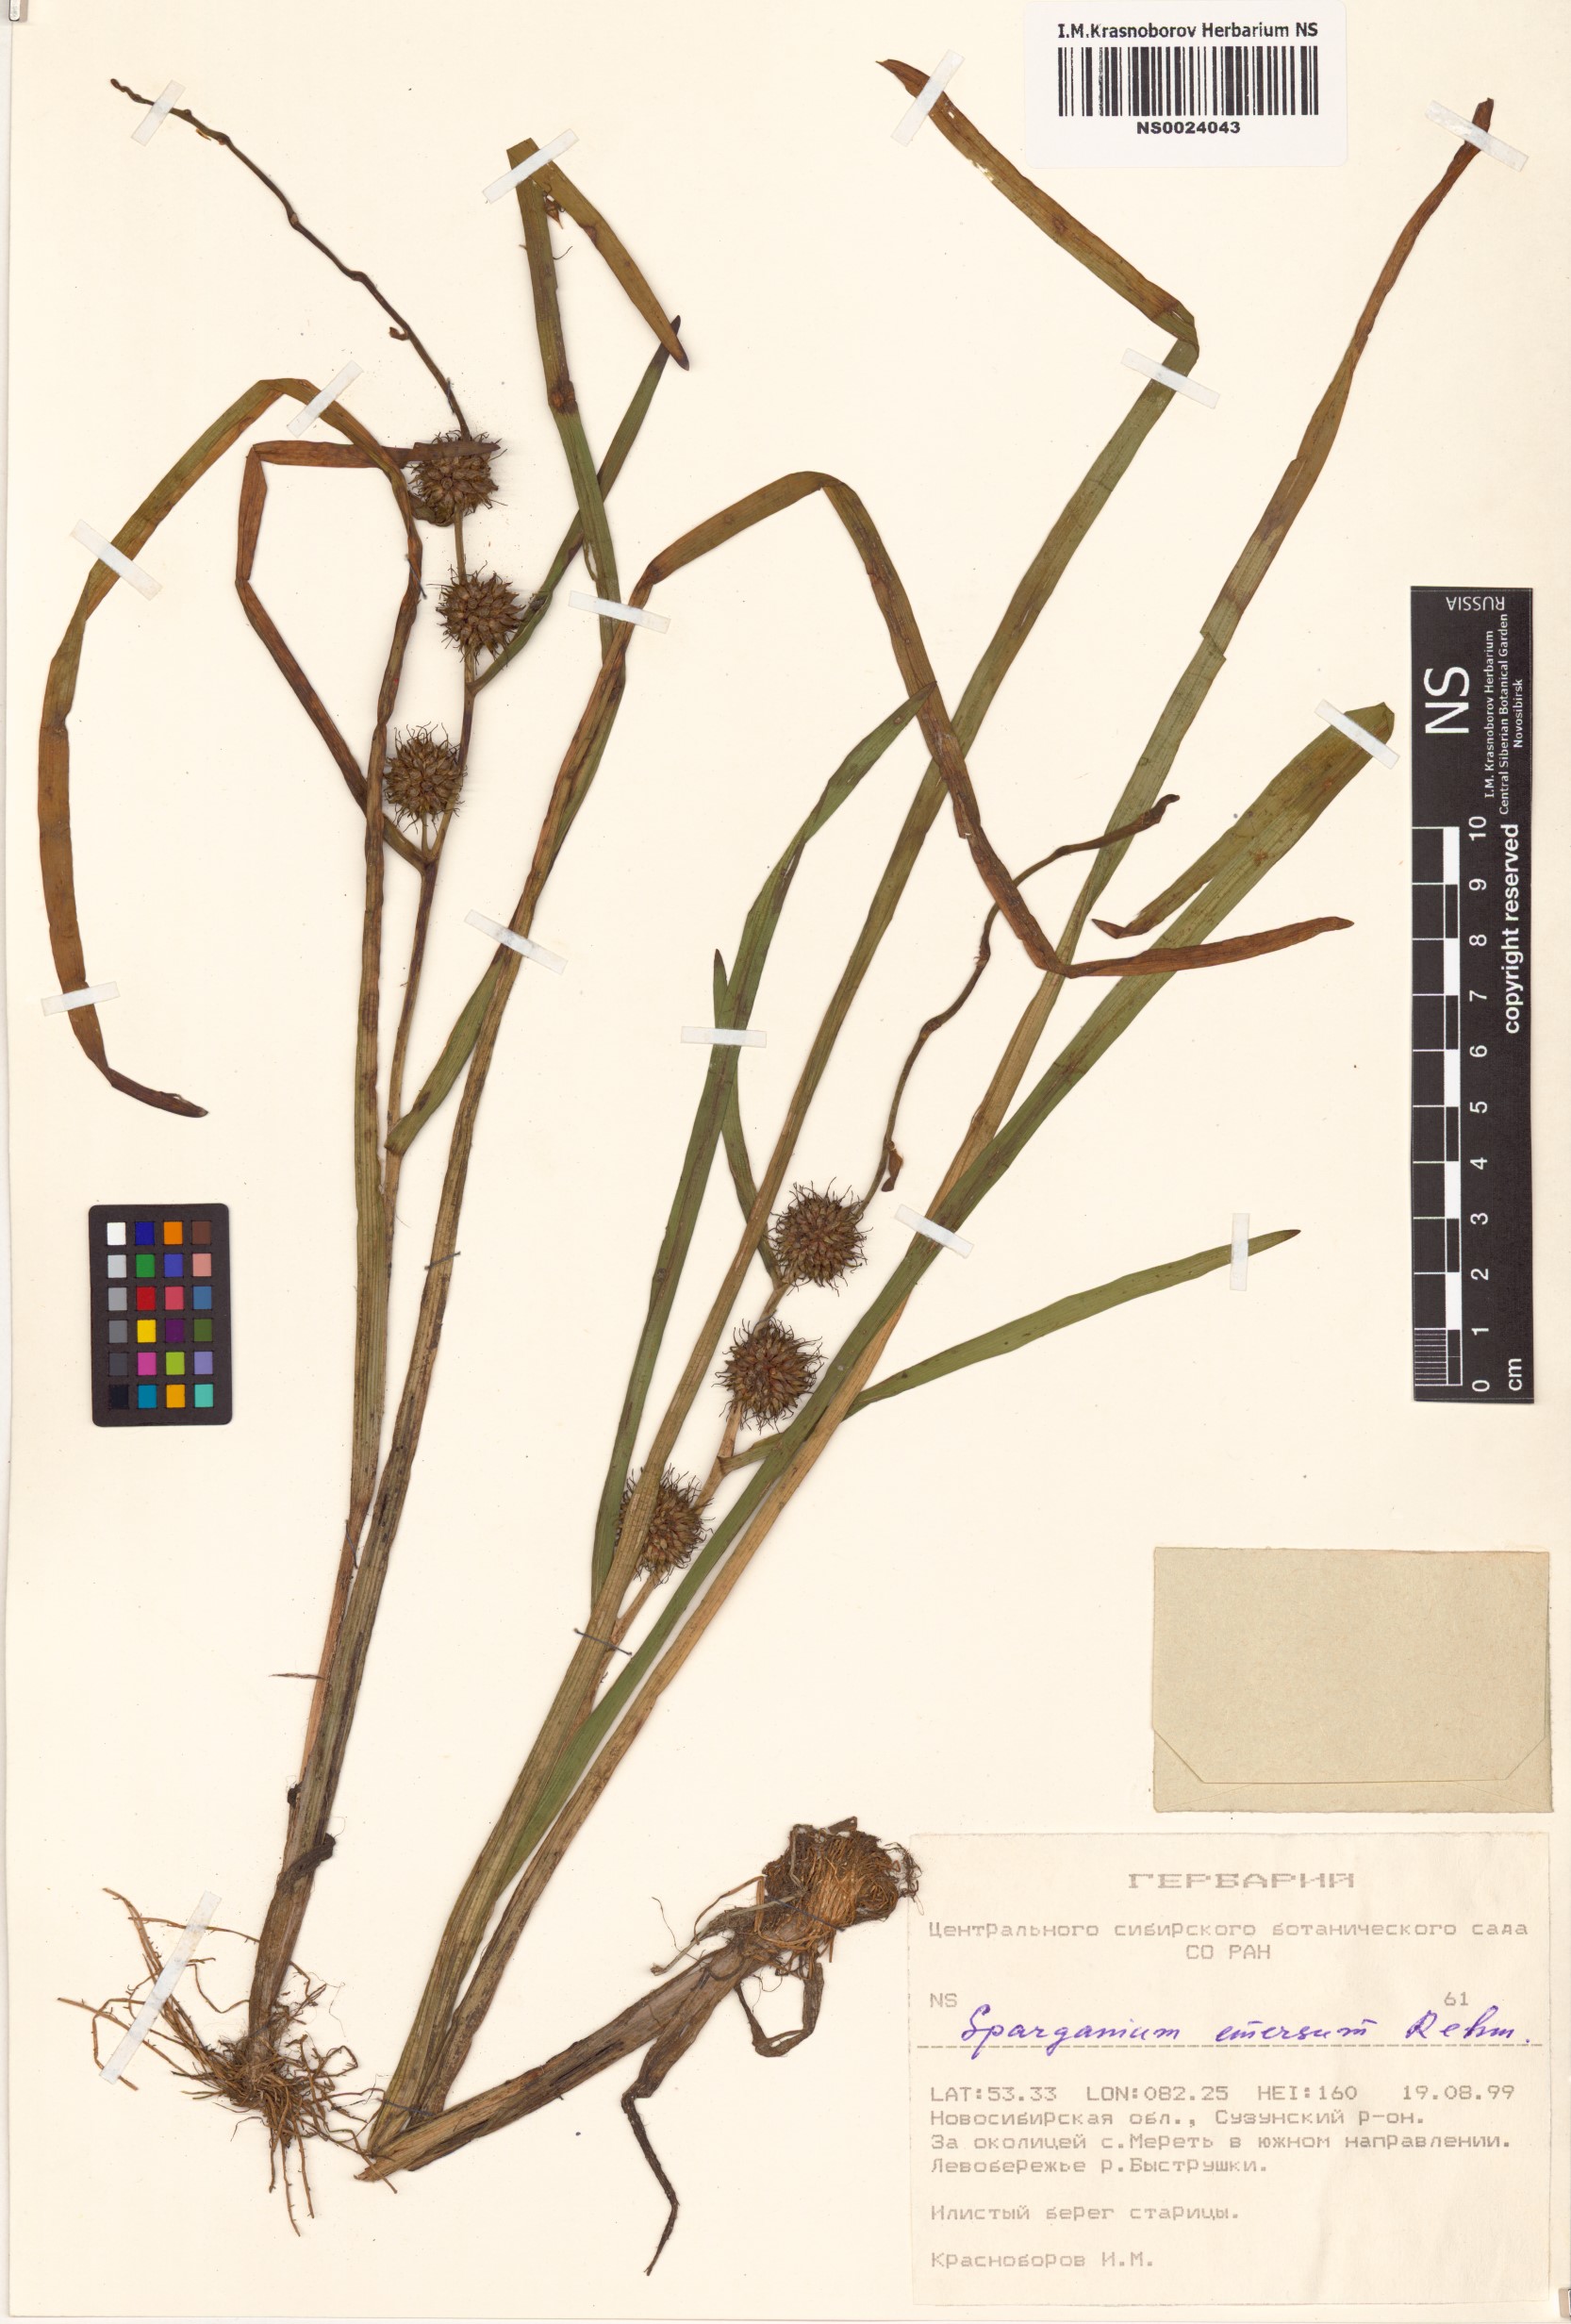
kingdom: Plantae
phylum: Tracheophyta
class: Liliopsida
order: Poales
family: Typhaceae
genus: Sparganium
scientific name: Sparganium emersum
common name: Unbranched bur-reed
